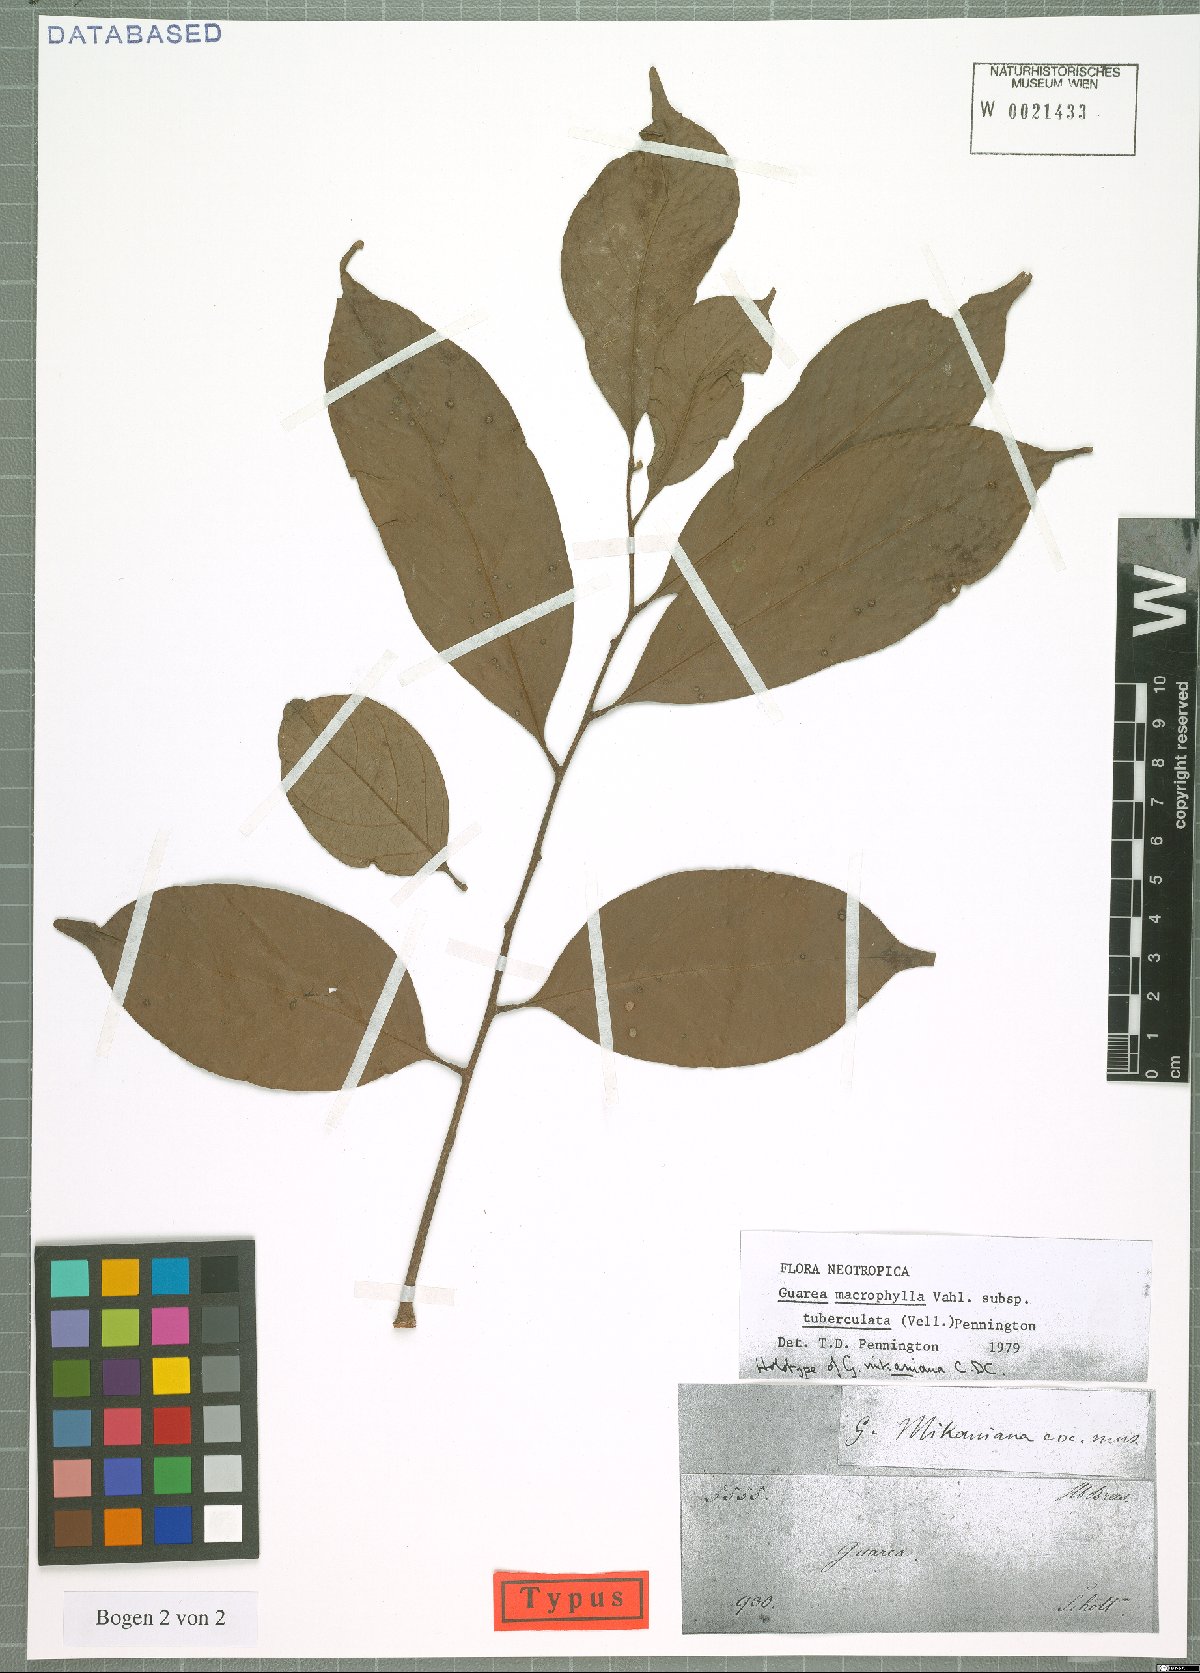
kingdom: Plantae
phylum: Tracheophyta
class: Magnoliopsida
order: Sapindales
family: Meliaceae
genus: Guarea
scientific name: Guarea macrophylla
